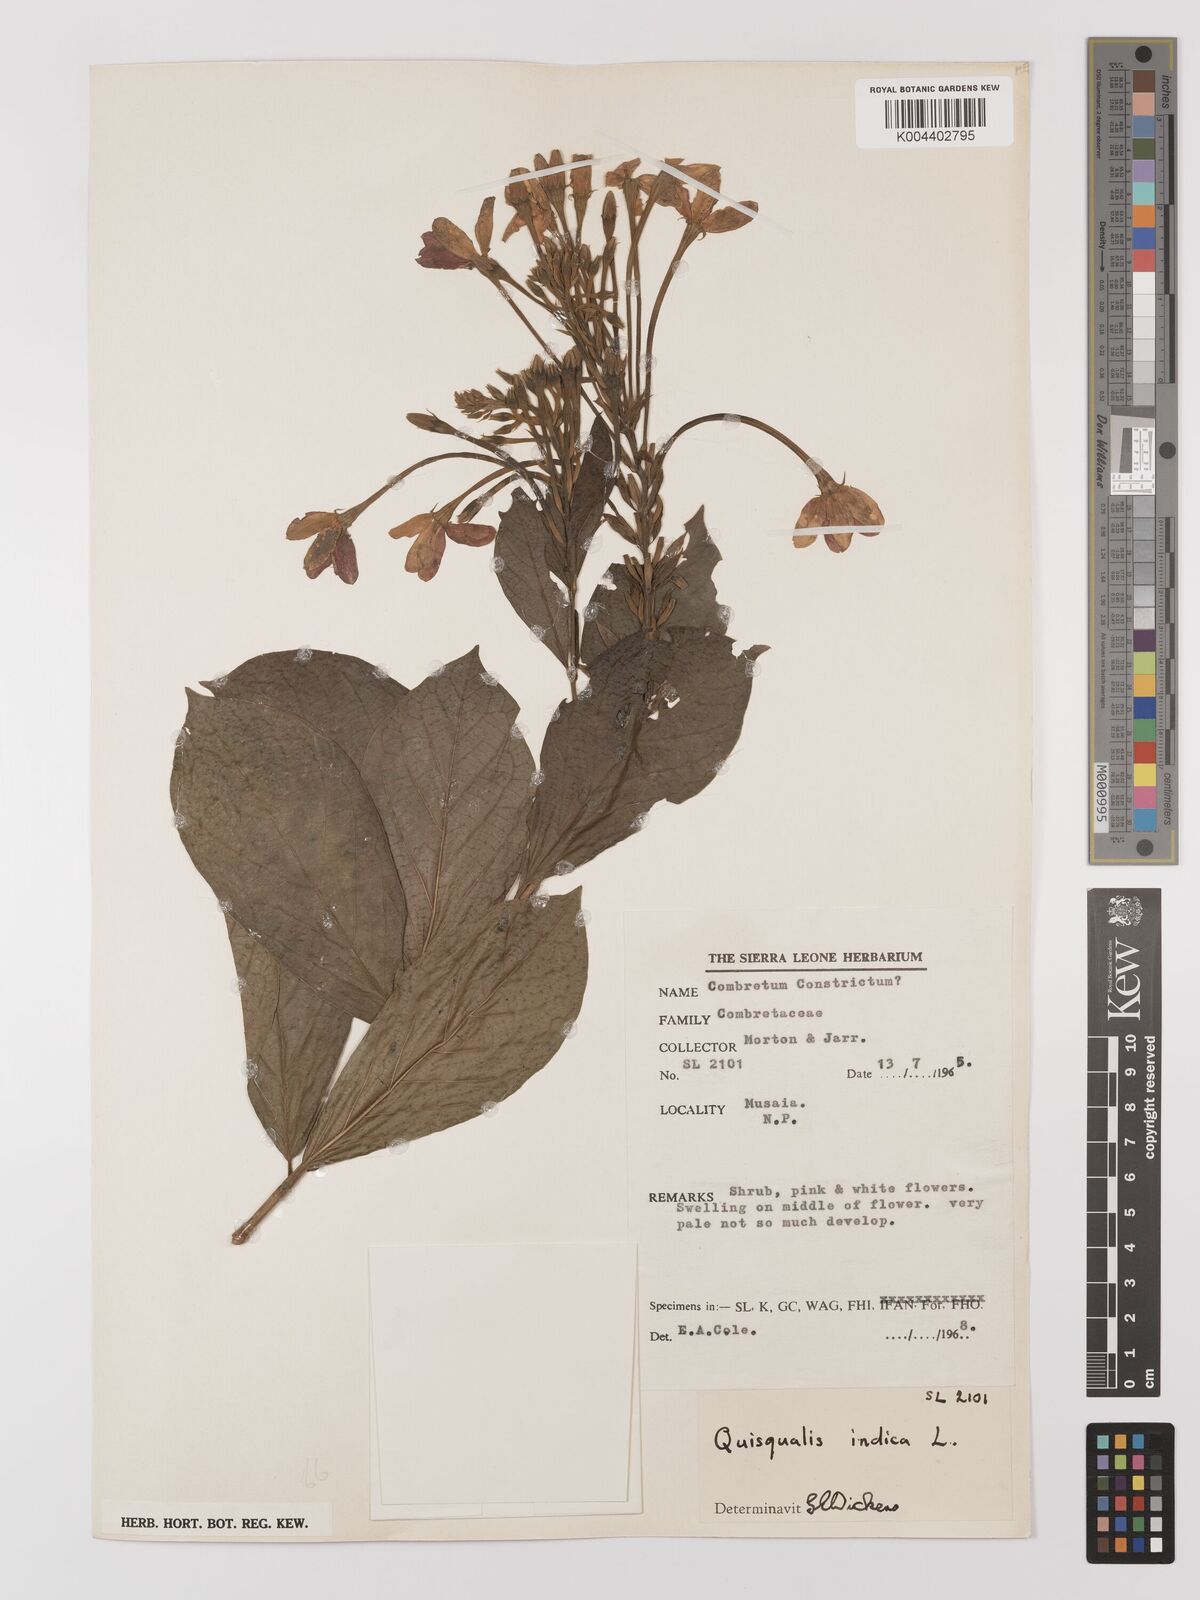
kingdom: Plantae
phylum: Tracheophyta
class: Magnoliopsida
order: Myrtales
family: Combretaceae
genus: Combretum
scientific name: Combretum
